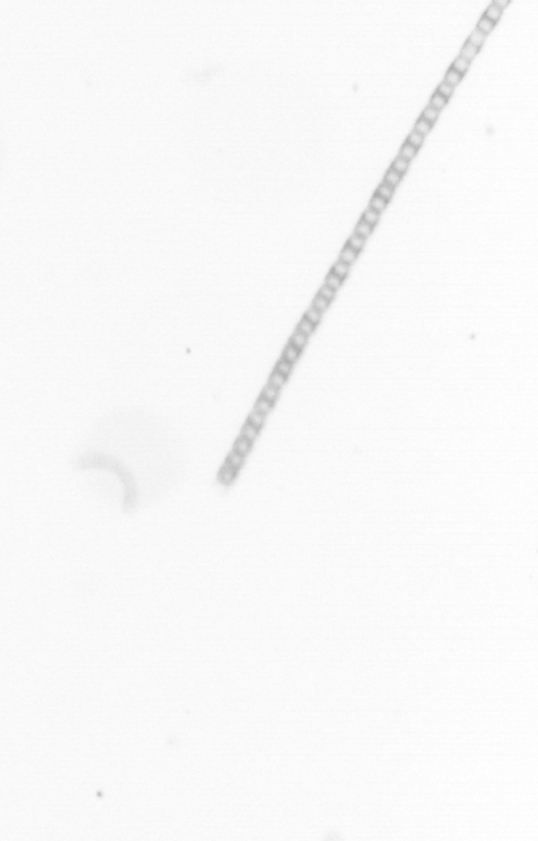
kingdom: Chromista
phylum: Ochrophyta
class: Bacillariophyceae
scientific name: Bacillariophyceae
